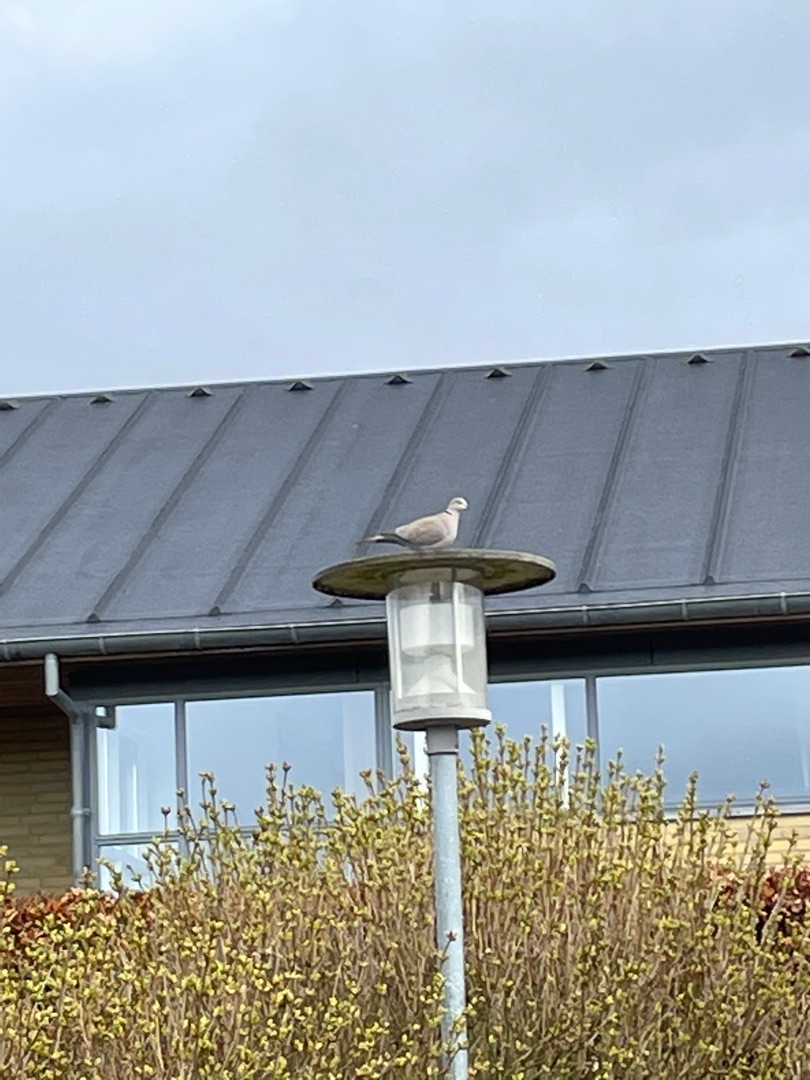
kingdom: Animalia
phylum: Chordata
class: Aves
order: Columbiformes
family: Columbidae
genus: Streptopelia
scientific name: Streptopelia decaocto
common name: Tyrkerdue
